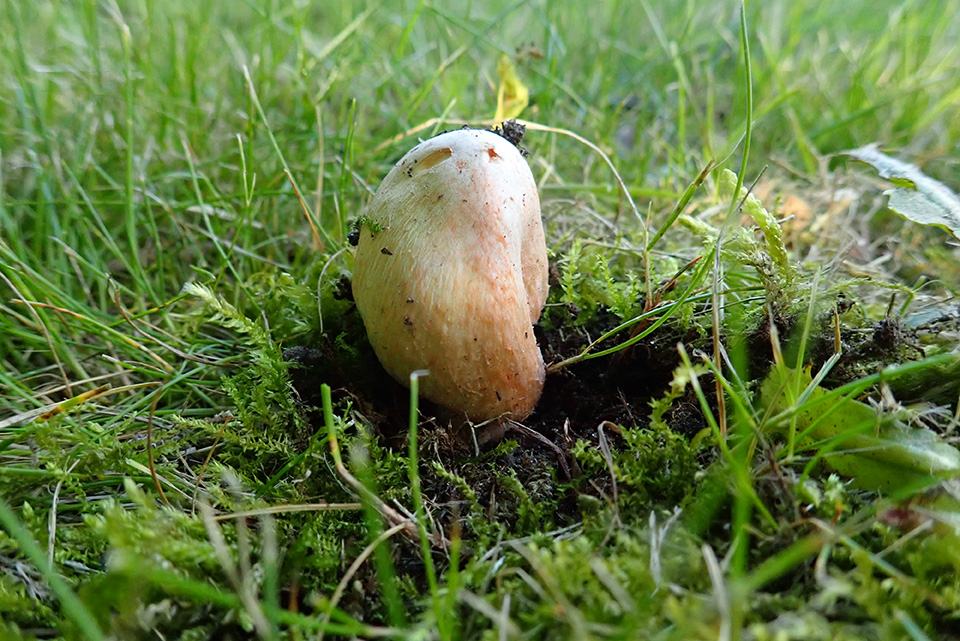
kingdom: Fungi
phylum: Basidiomycota
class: Agaricomycetes
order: Agaricales
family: Inocybaceae
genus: Inosperma
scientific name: Inosperma erubescens
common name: giftig trævlhat
